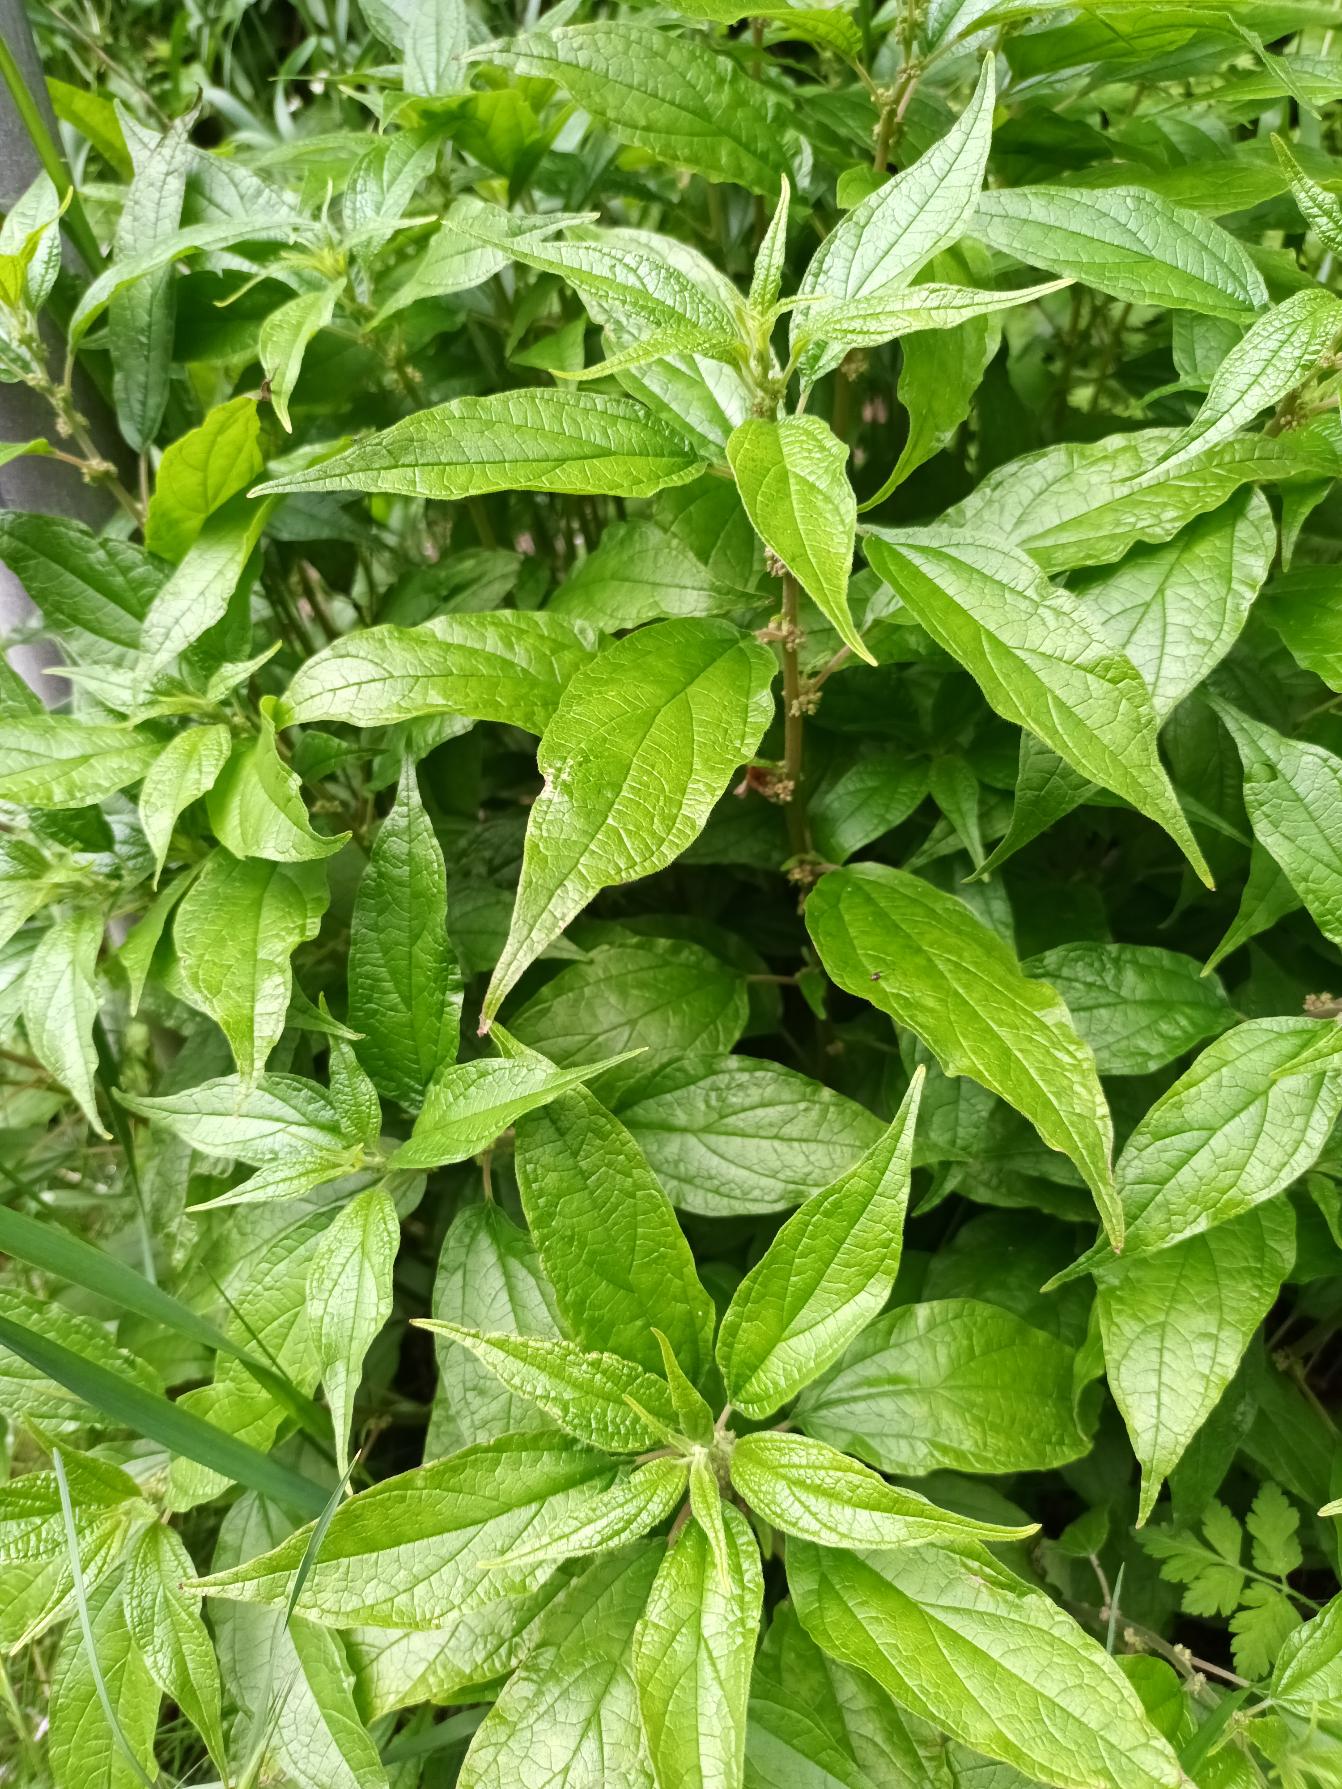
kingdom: Plantae
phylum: Tracheophyta
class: Magnoliopsida
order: Rosales
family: Urticaceae
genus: Parietaria
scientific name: Parietaria officinalis
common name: Almindelig springknap
